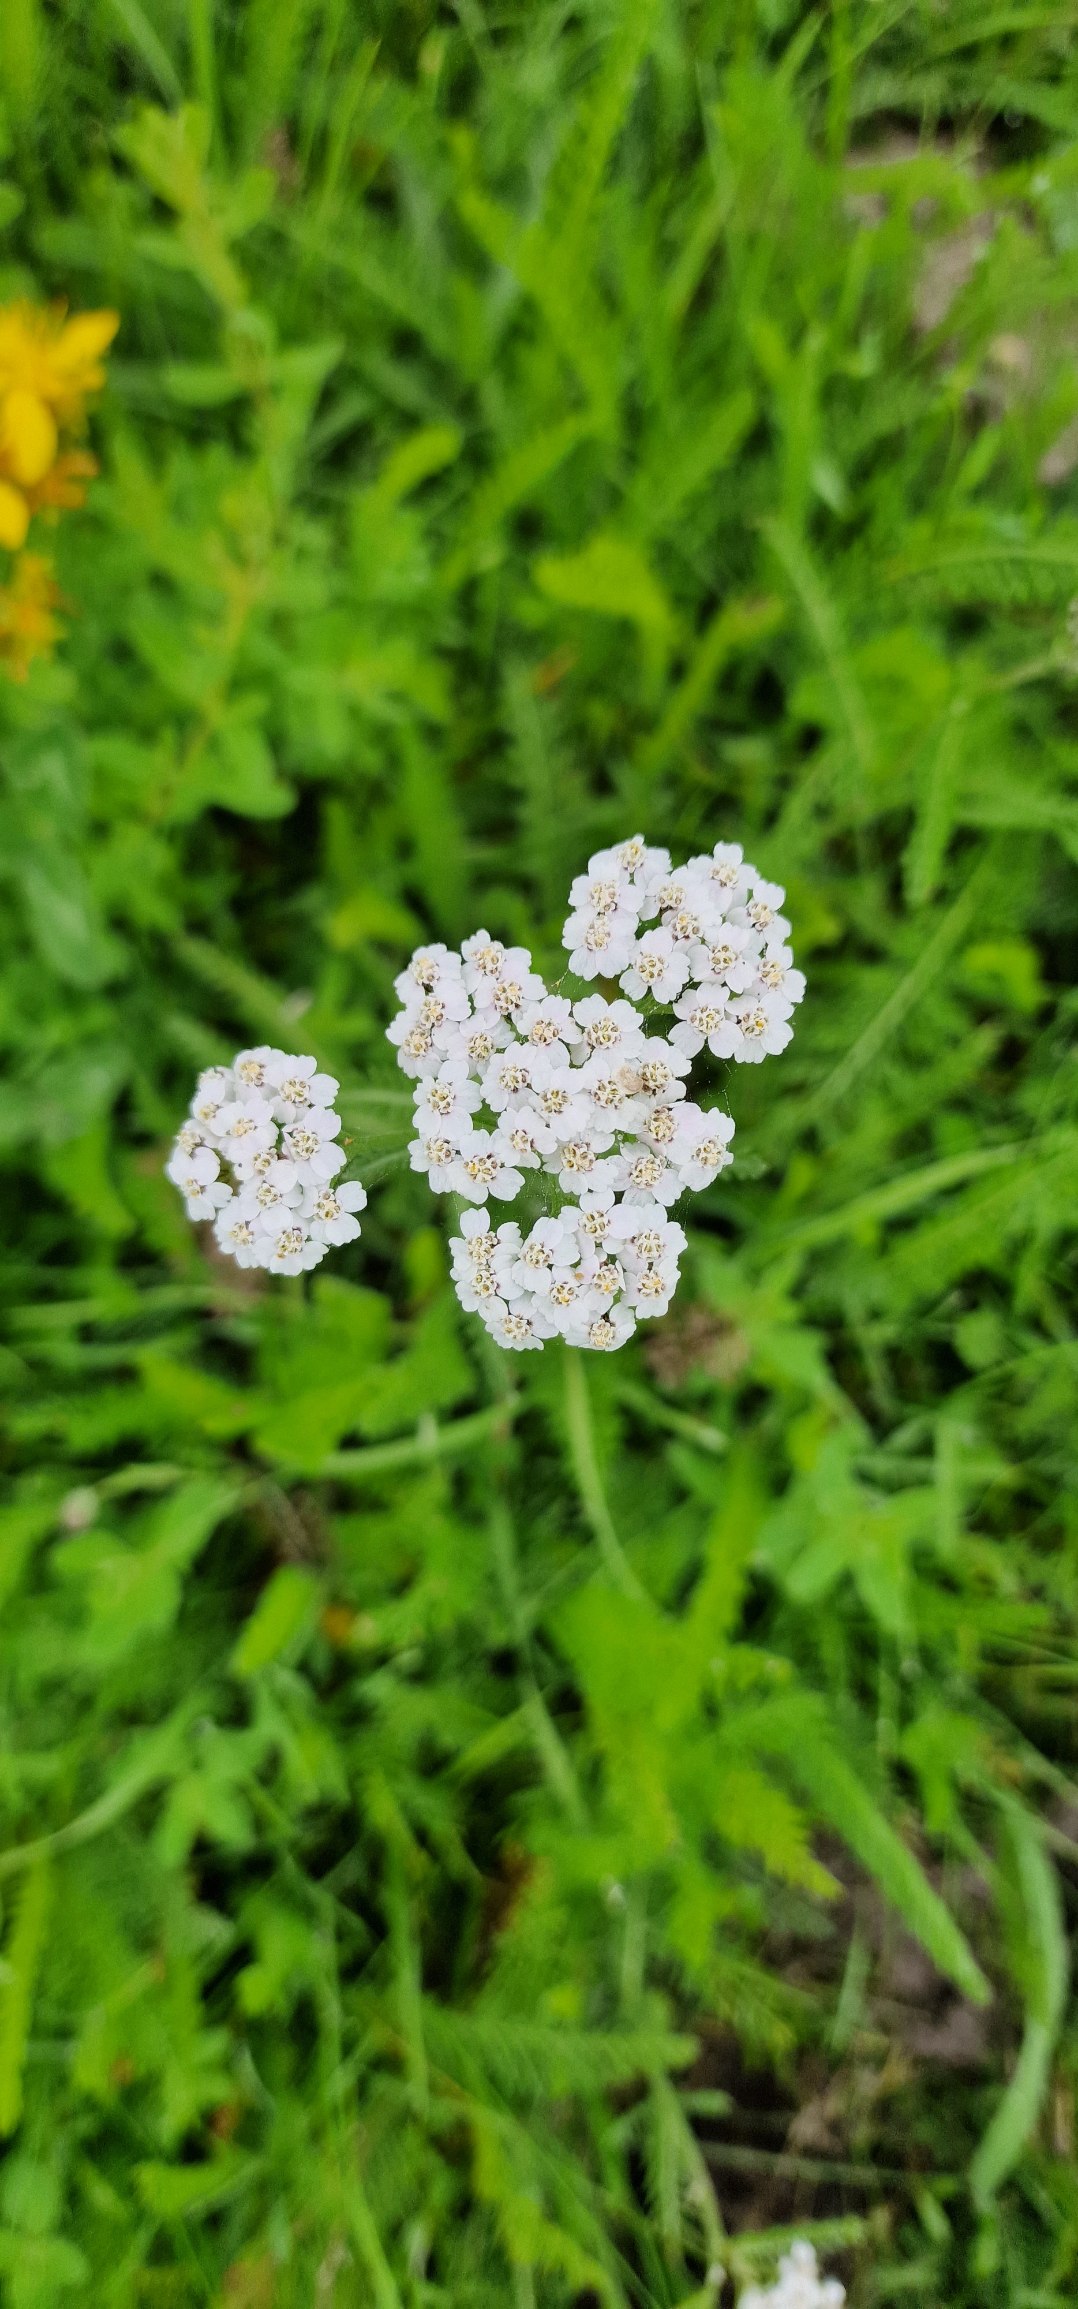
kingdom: Plantae
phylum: Tracheophyta
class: Magnoliopsida
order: Asterales
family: Asteraceae
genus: Achillea
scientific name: Achillea millefolium
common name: Almindelig røllike
